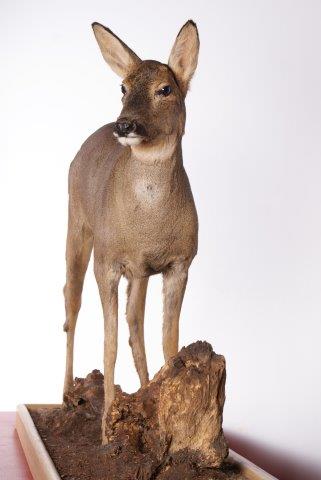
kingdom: Animalia
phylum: Chordata
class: Mammalia
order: Artiodactyla
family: Cervidae
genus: Capreolus
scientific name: Capreolus capreolus
